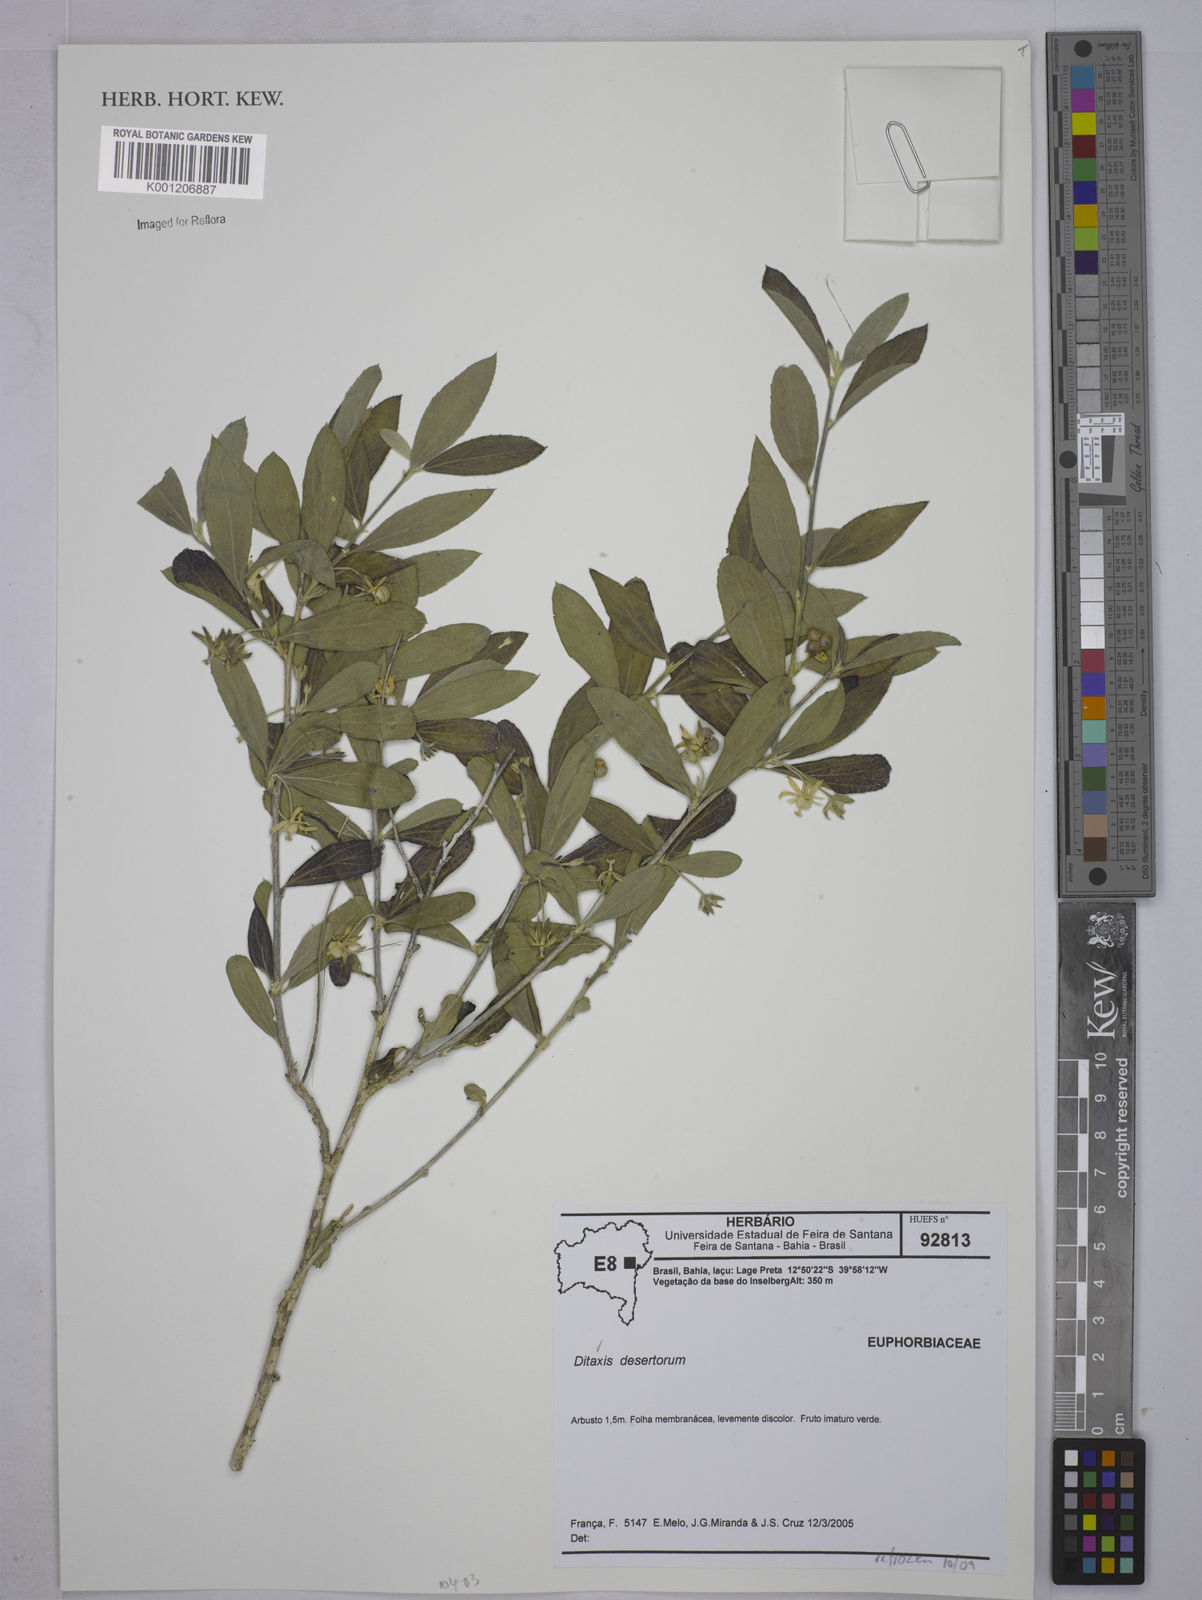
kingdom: Plantae
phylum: Tracheophyta
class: Magnoliopsida
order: Malpighiales
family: Euphorbiaceae
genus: Ditaxis
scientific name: Ditaxis
